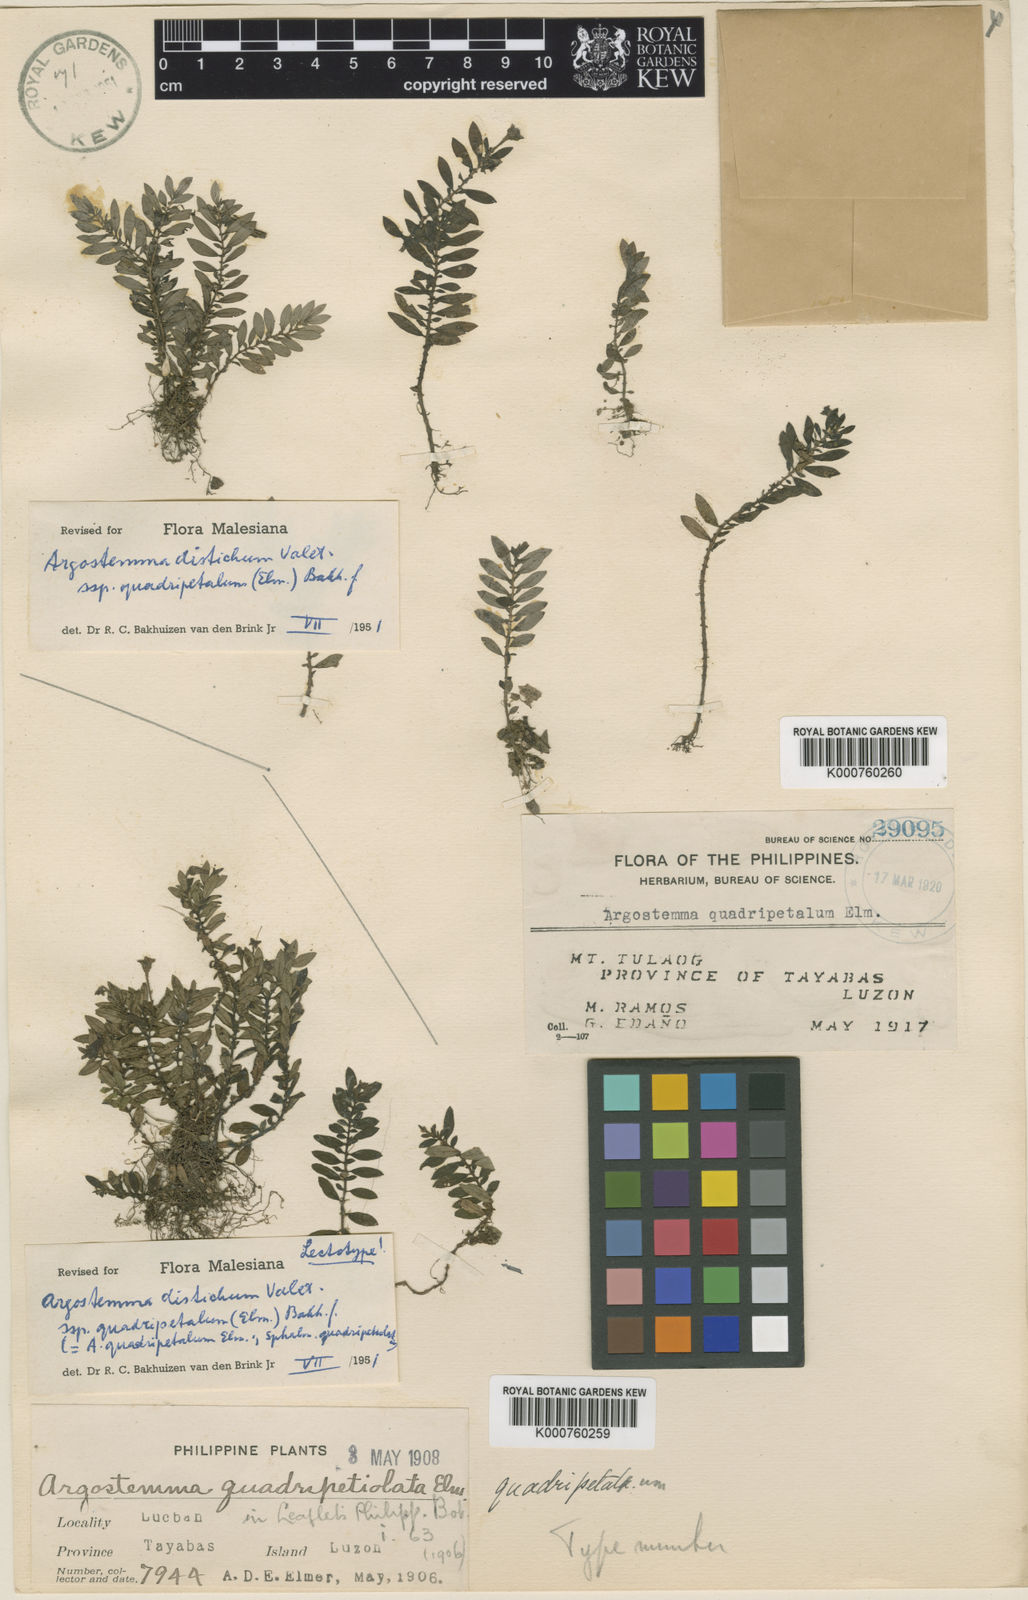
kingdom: Plantae
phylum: Tracheophyta
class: Magnoliopsida
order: Gentianales
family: Rubiaceae
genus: Argostemma
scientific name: Argostemma distichum
